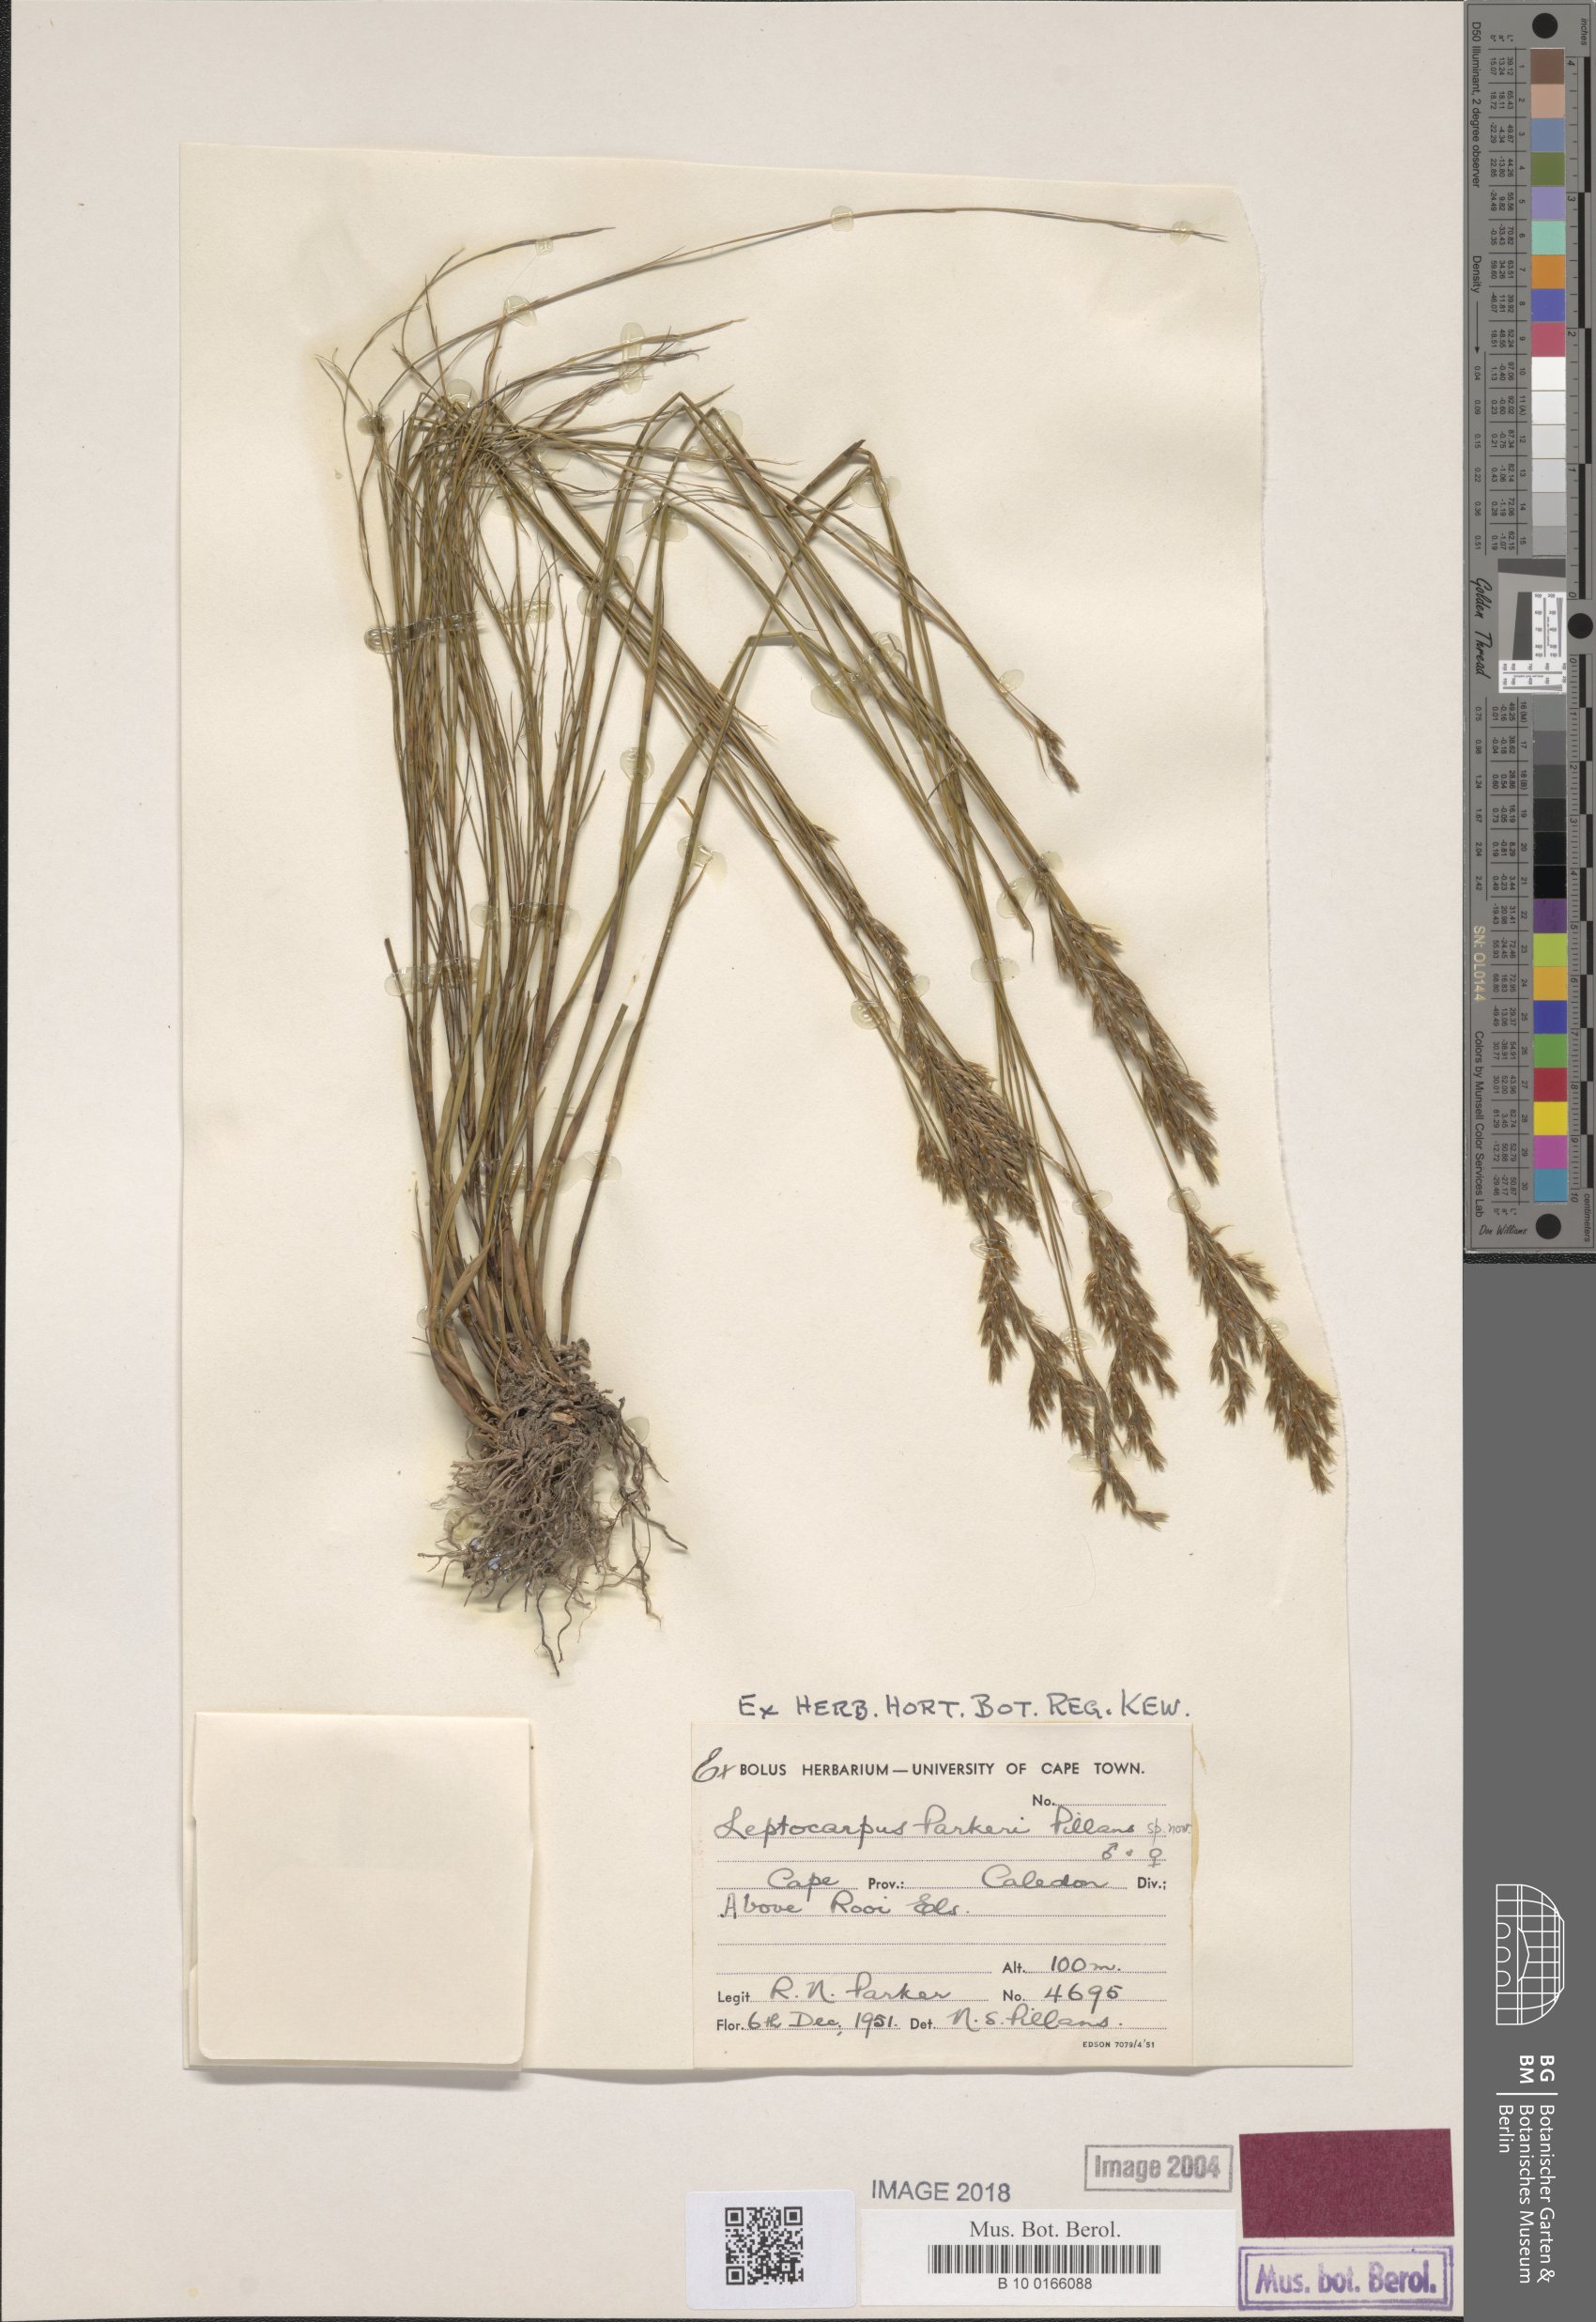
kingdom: Plantae
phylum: Tracheophyta
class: Liliopsida
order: Poales
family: Restionaceae
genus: Restio
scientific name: Restio festuciformis
